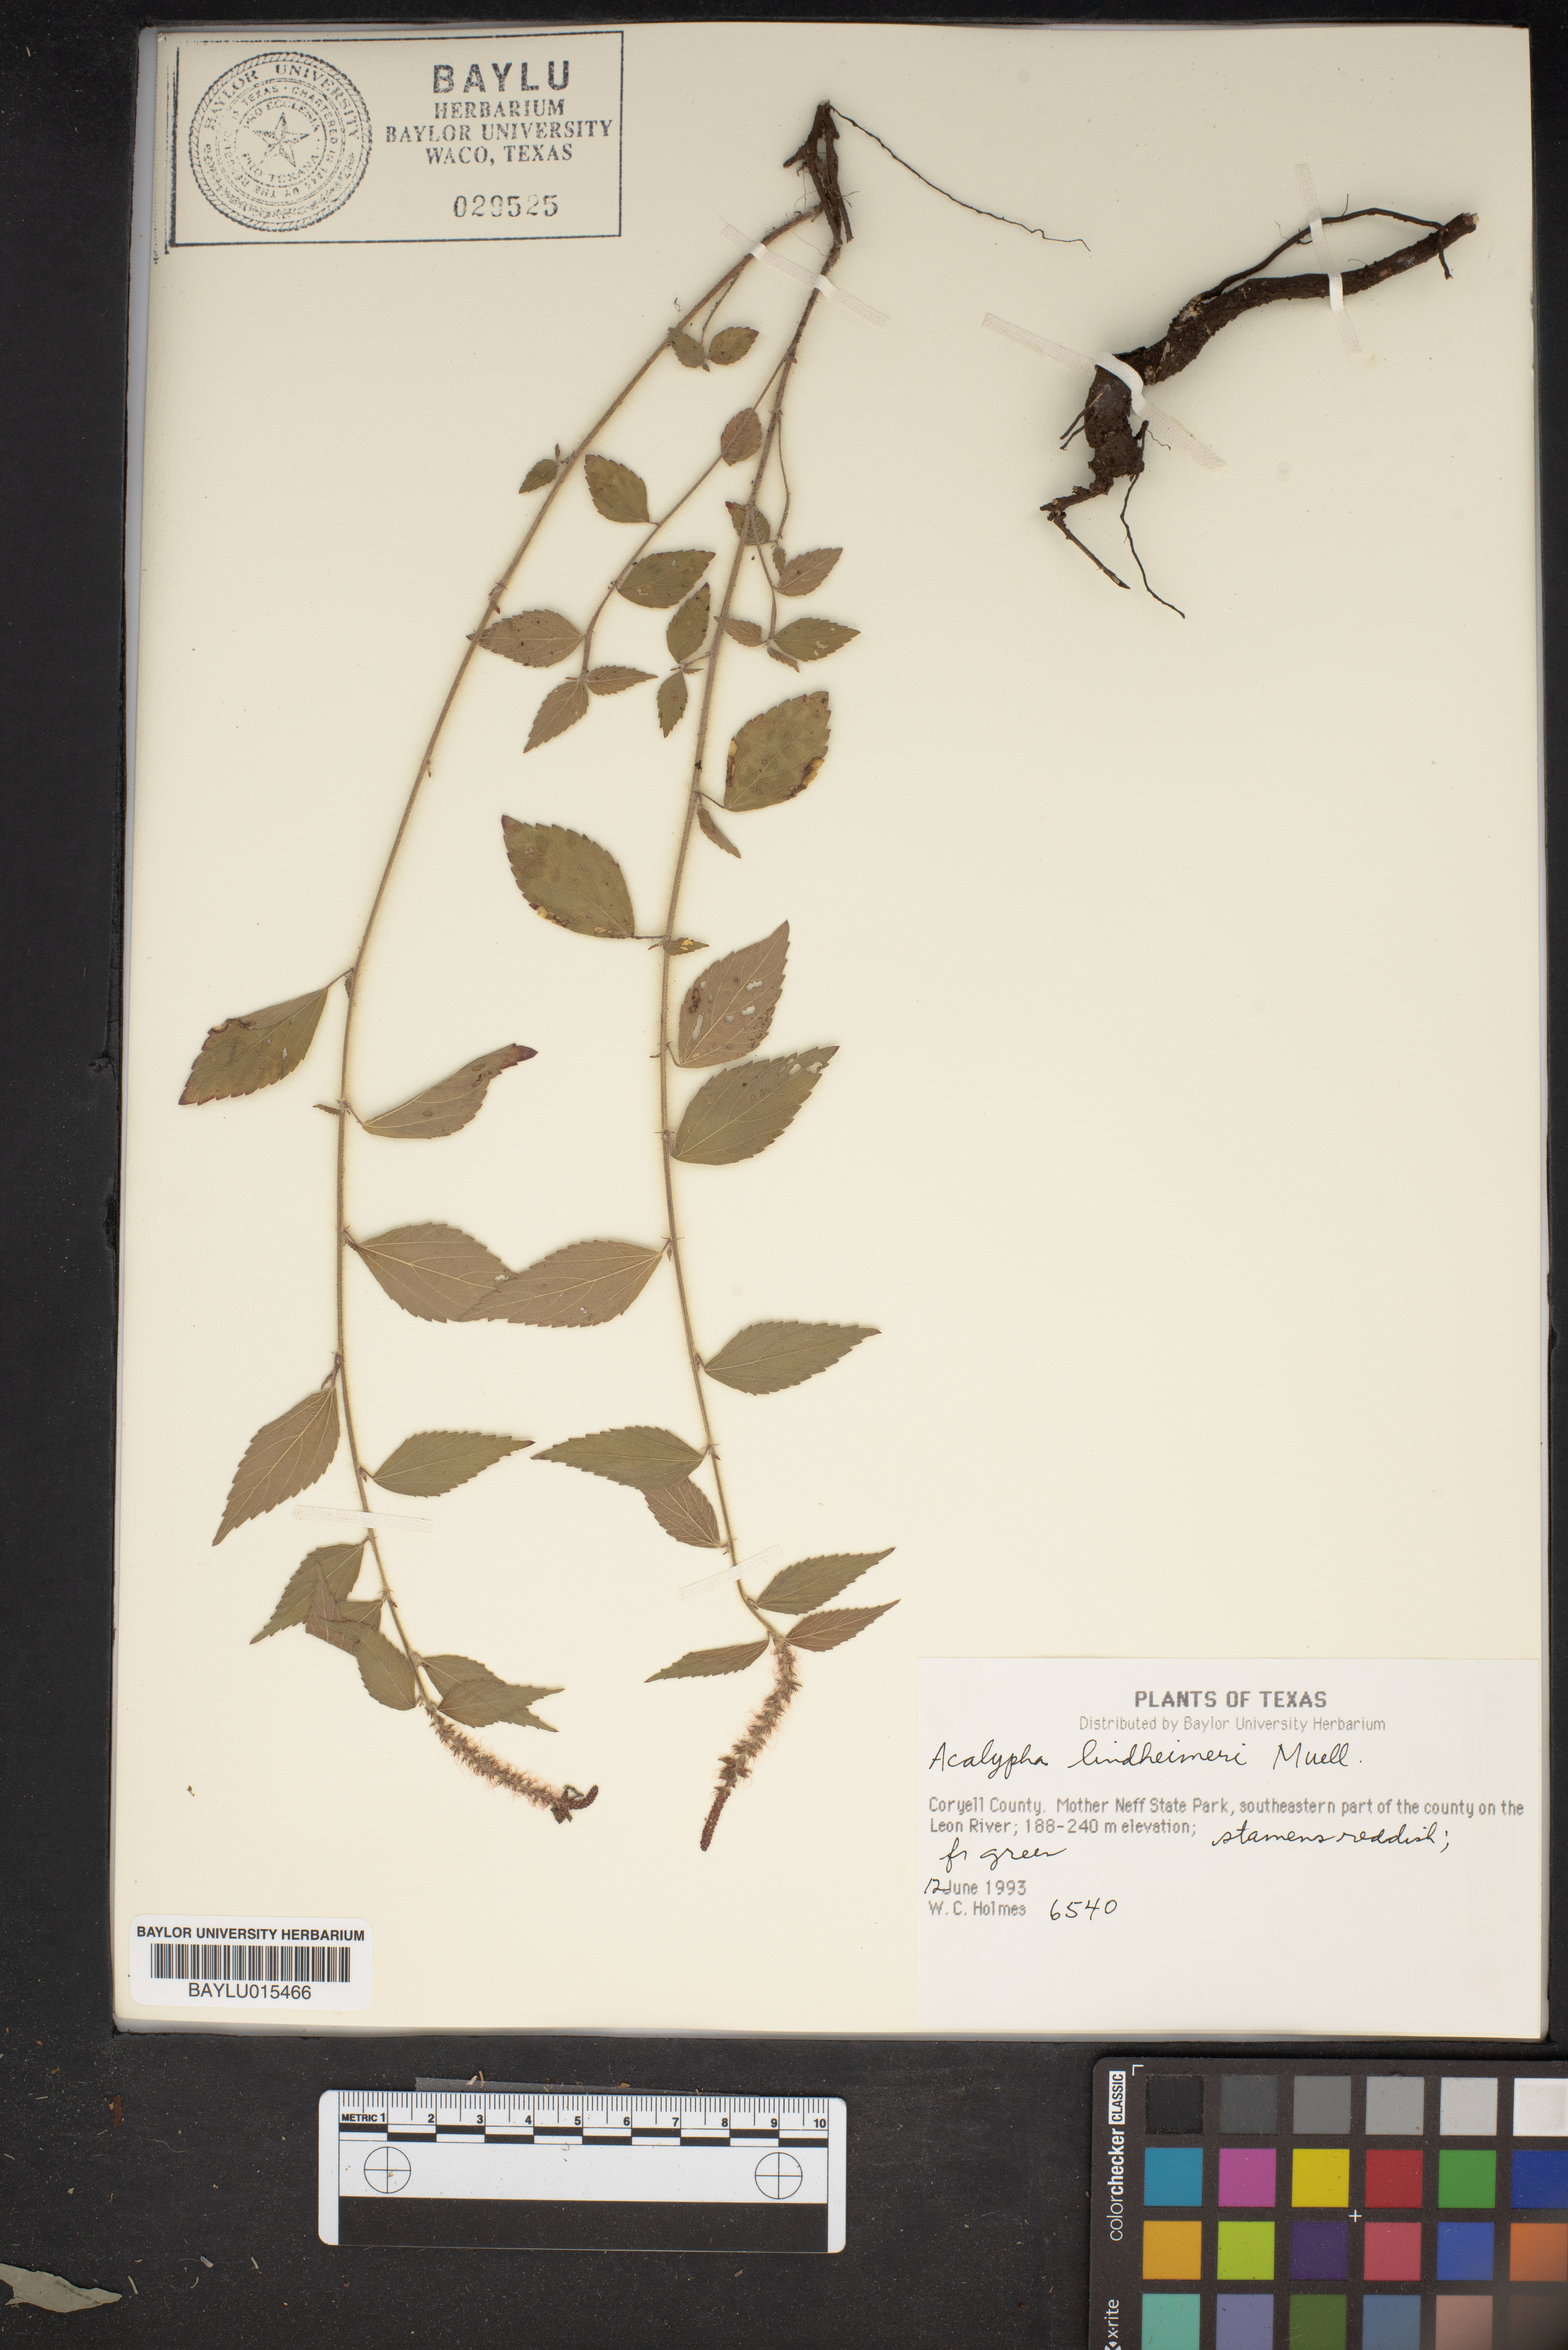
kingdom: Plantae
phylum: Tracheophyta
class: Magnoliopsida
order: Malpighiales
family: Euphorbiaceae
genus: Acalypha
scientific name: Acalypha phleoides
